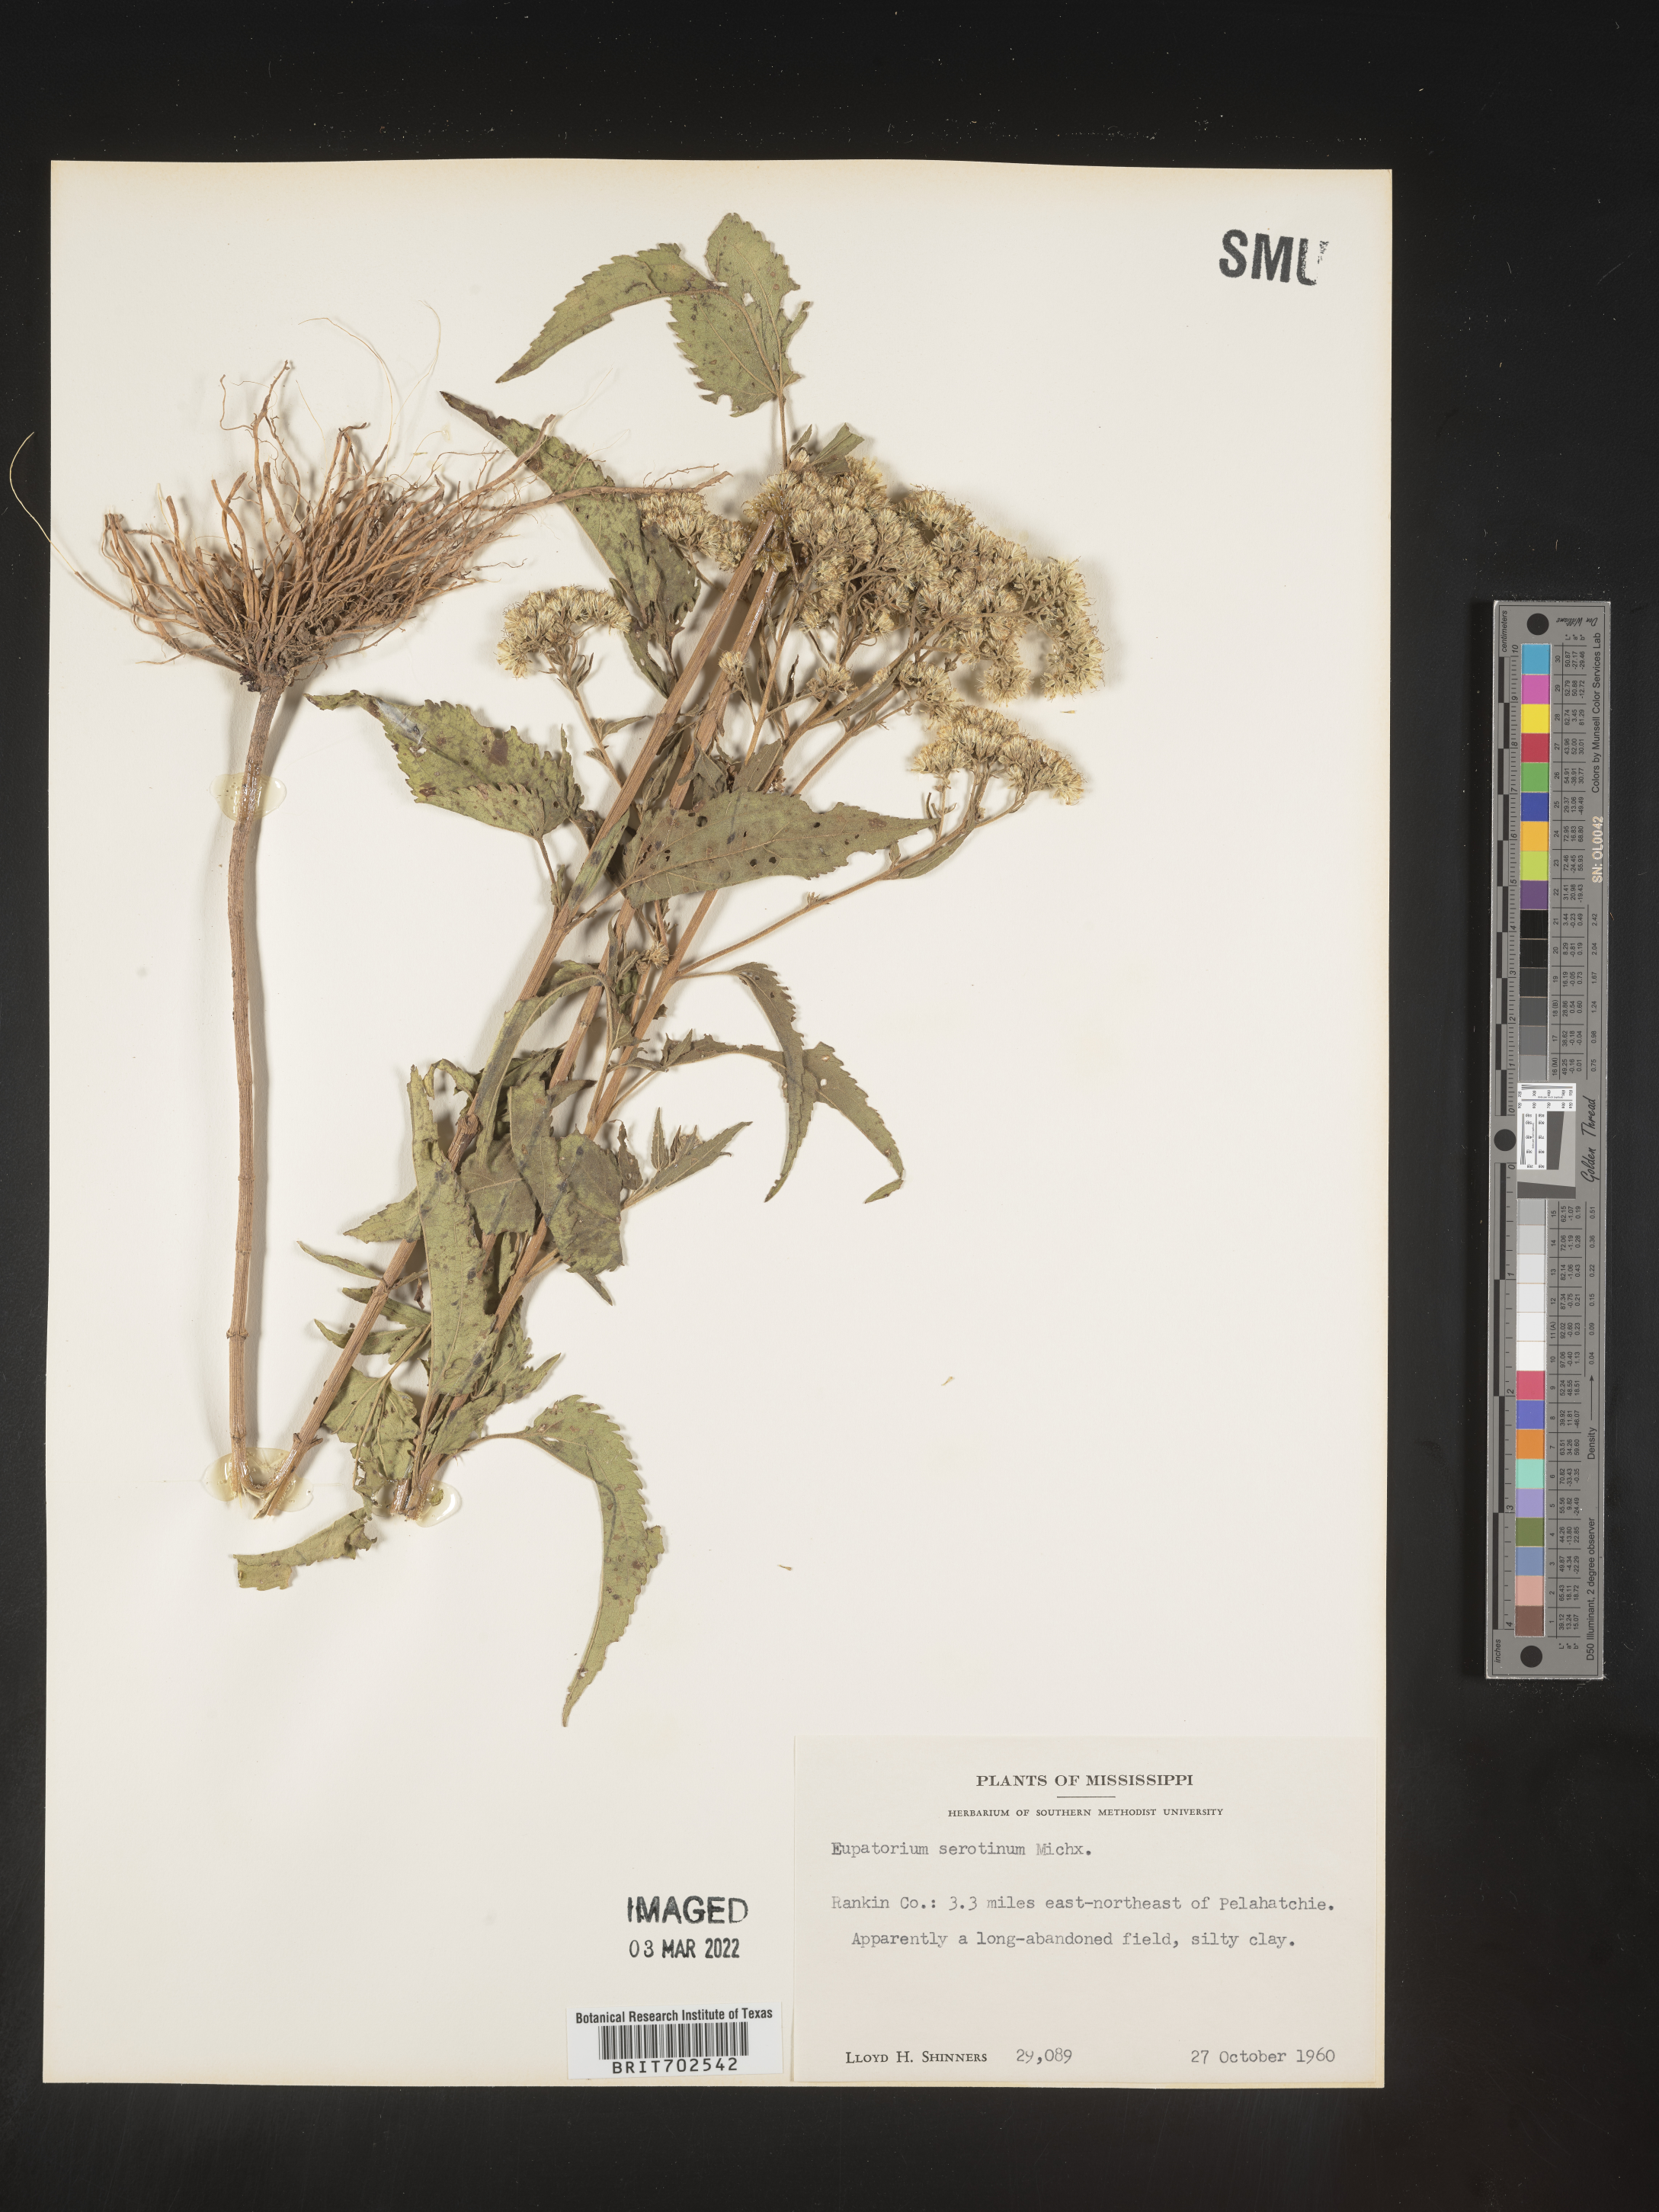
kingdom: Plantae
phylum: Tracheophyta
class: Magnoliopsida
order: Asterales
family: Asteraceae
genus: Eupatorium
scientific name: Eupatorium serotinum
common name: Late boneset
